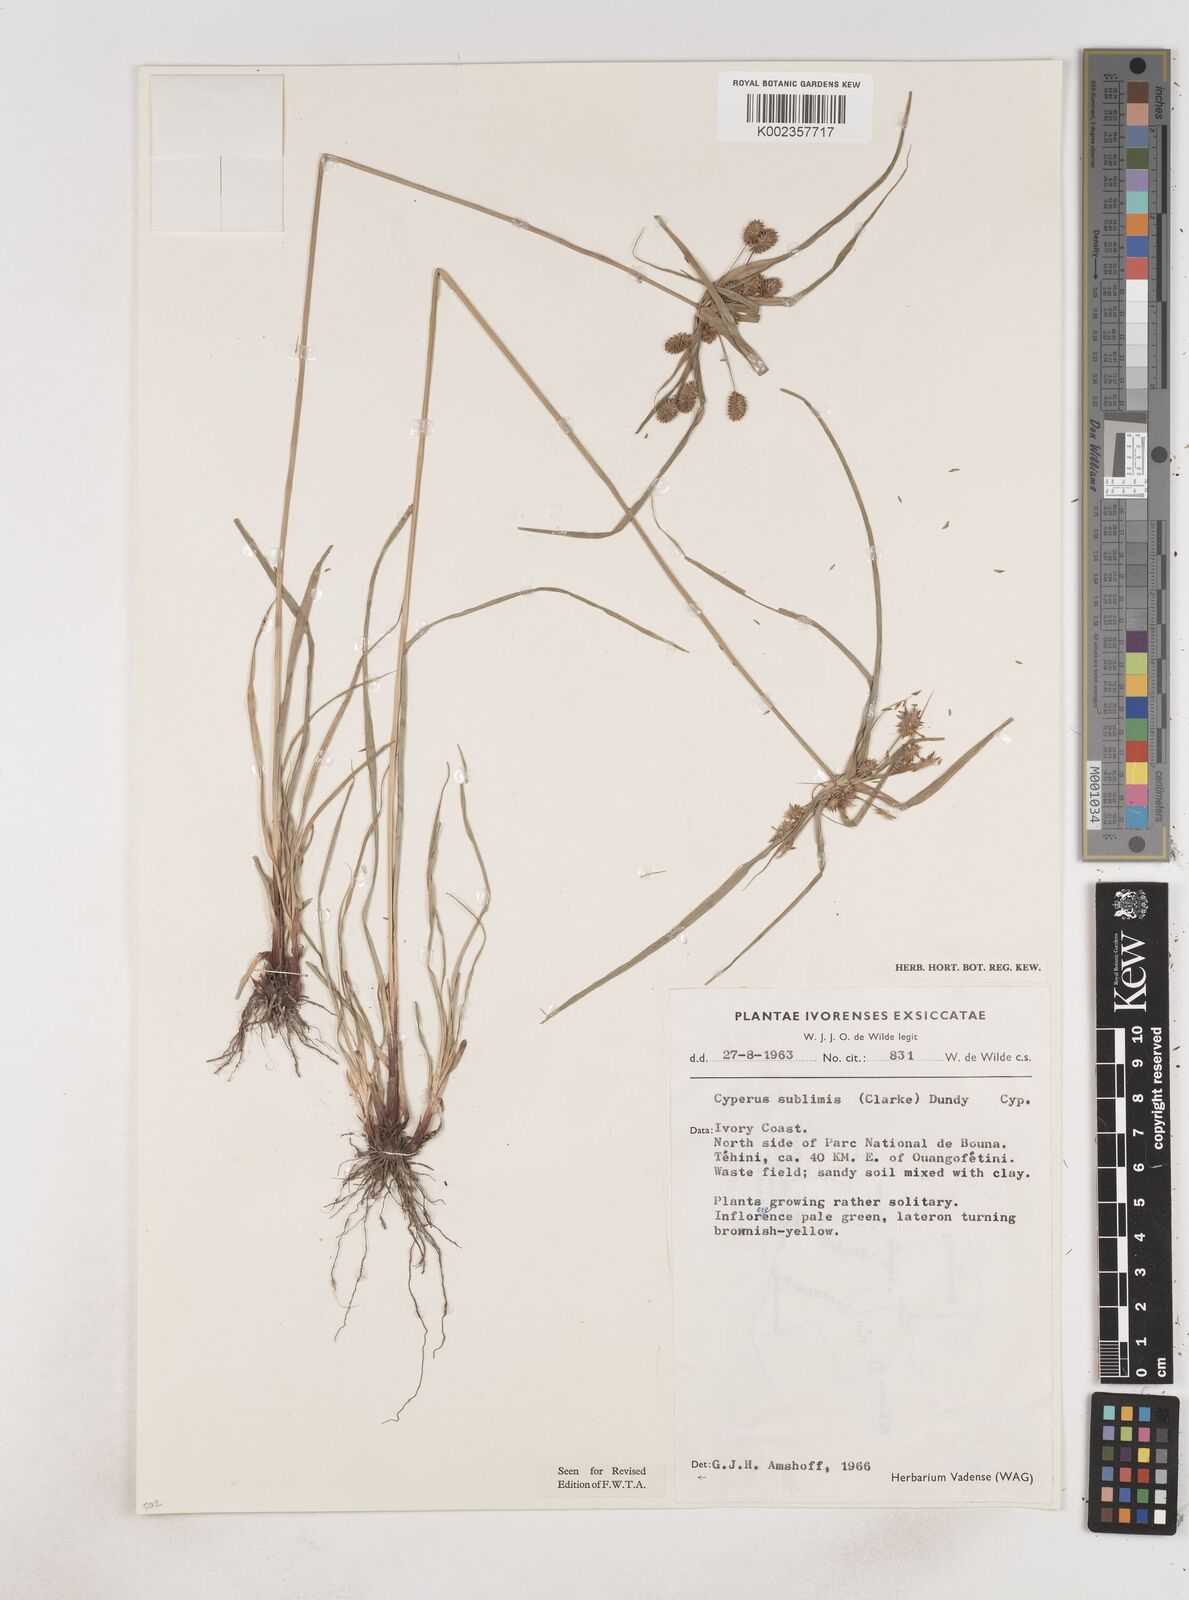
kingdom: Plantae
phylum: Tracheophyta
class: Liliopsida
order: Poales
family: Cyperaceae
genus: Cyperus
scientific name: Cyperus sublimis
